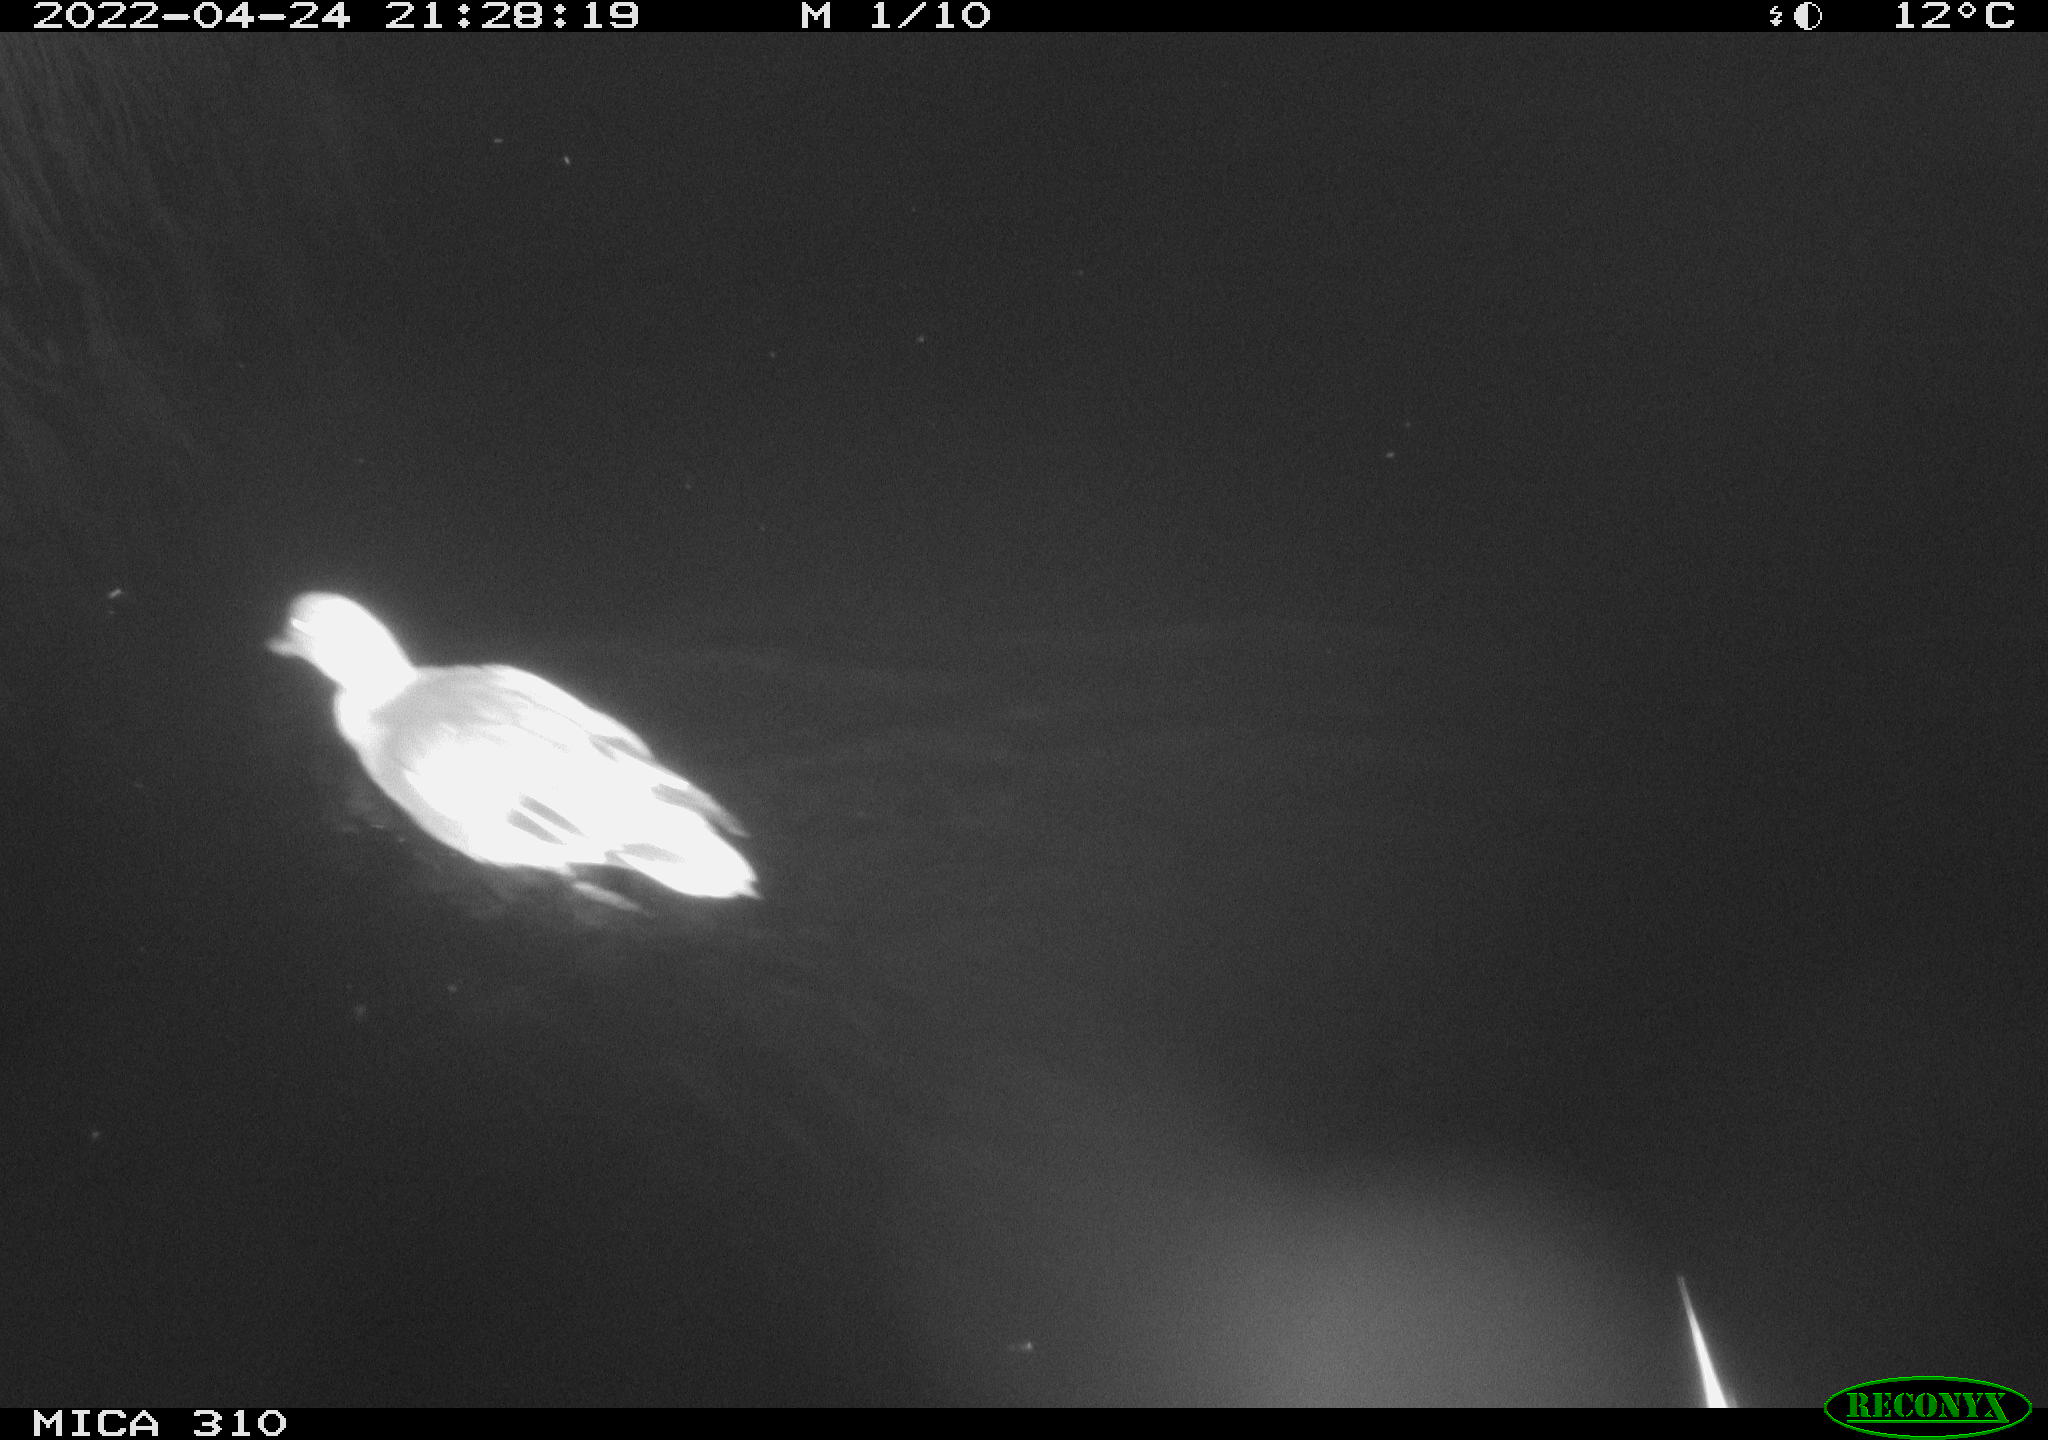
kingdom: Animalia
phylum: Chordata
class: Aves
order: Anseriformes
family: Anatidae
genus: Mareca
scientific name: Mareca strepera
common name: Gadwall
